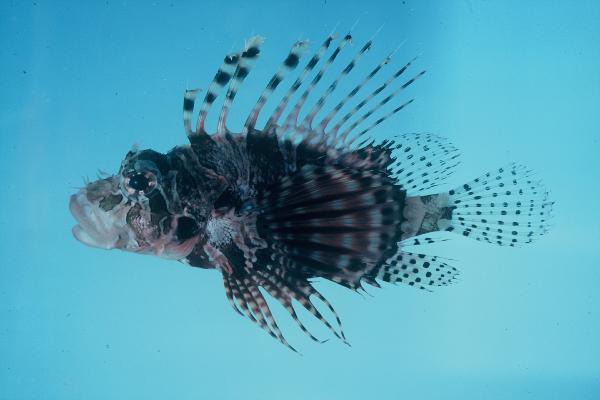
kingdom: Animalia
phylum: Chordata
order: Scorpaeniformes
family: Scorpaenidae
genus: Dendrochirus
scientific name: Dendrochirus zebra
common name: Zebra lionfish
